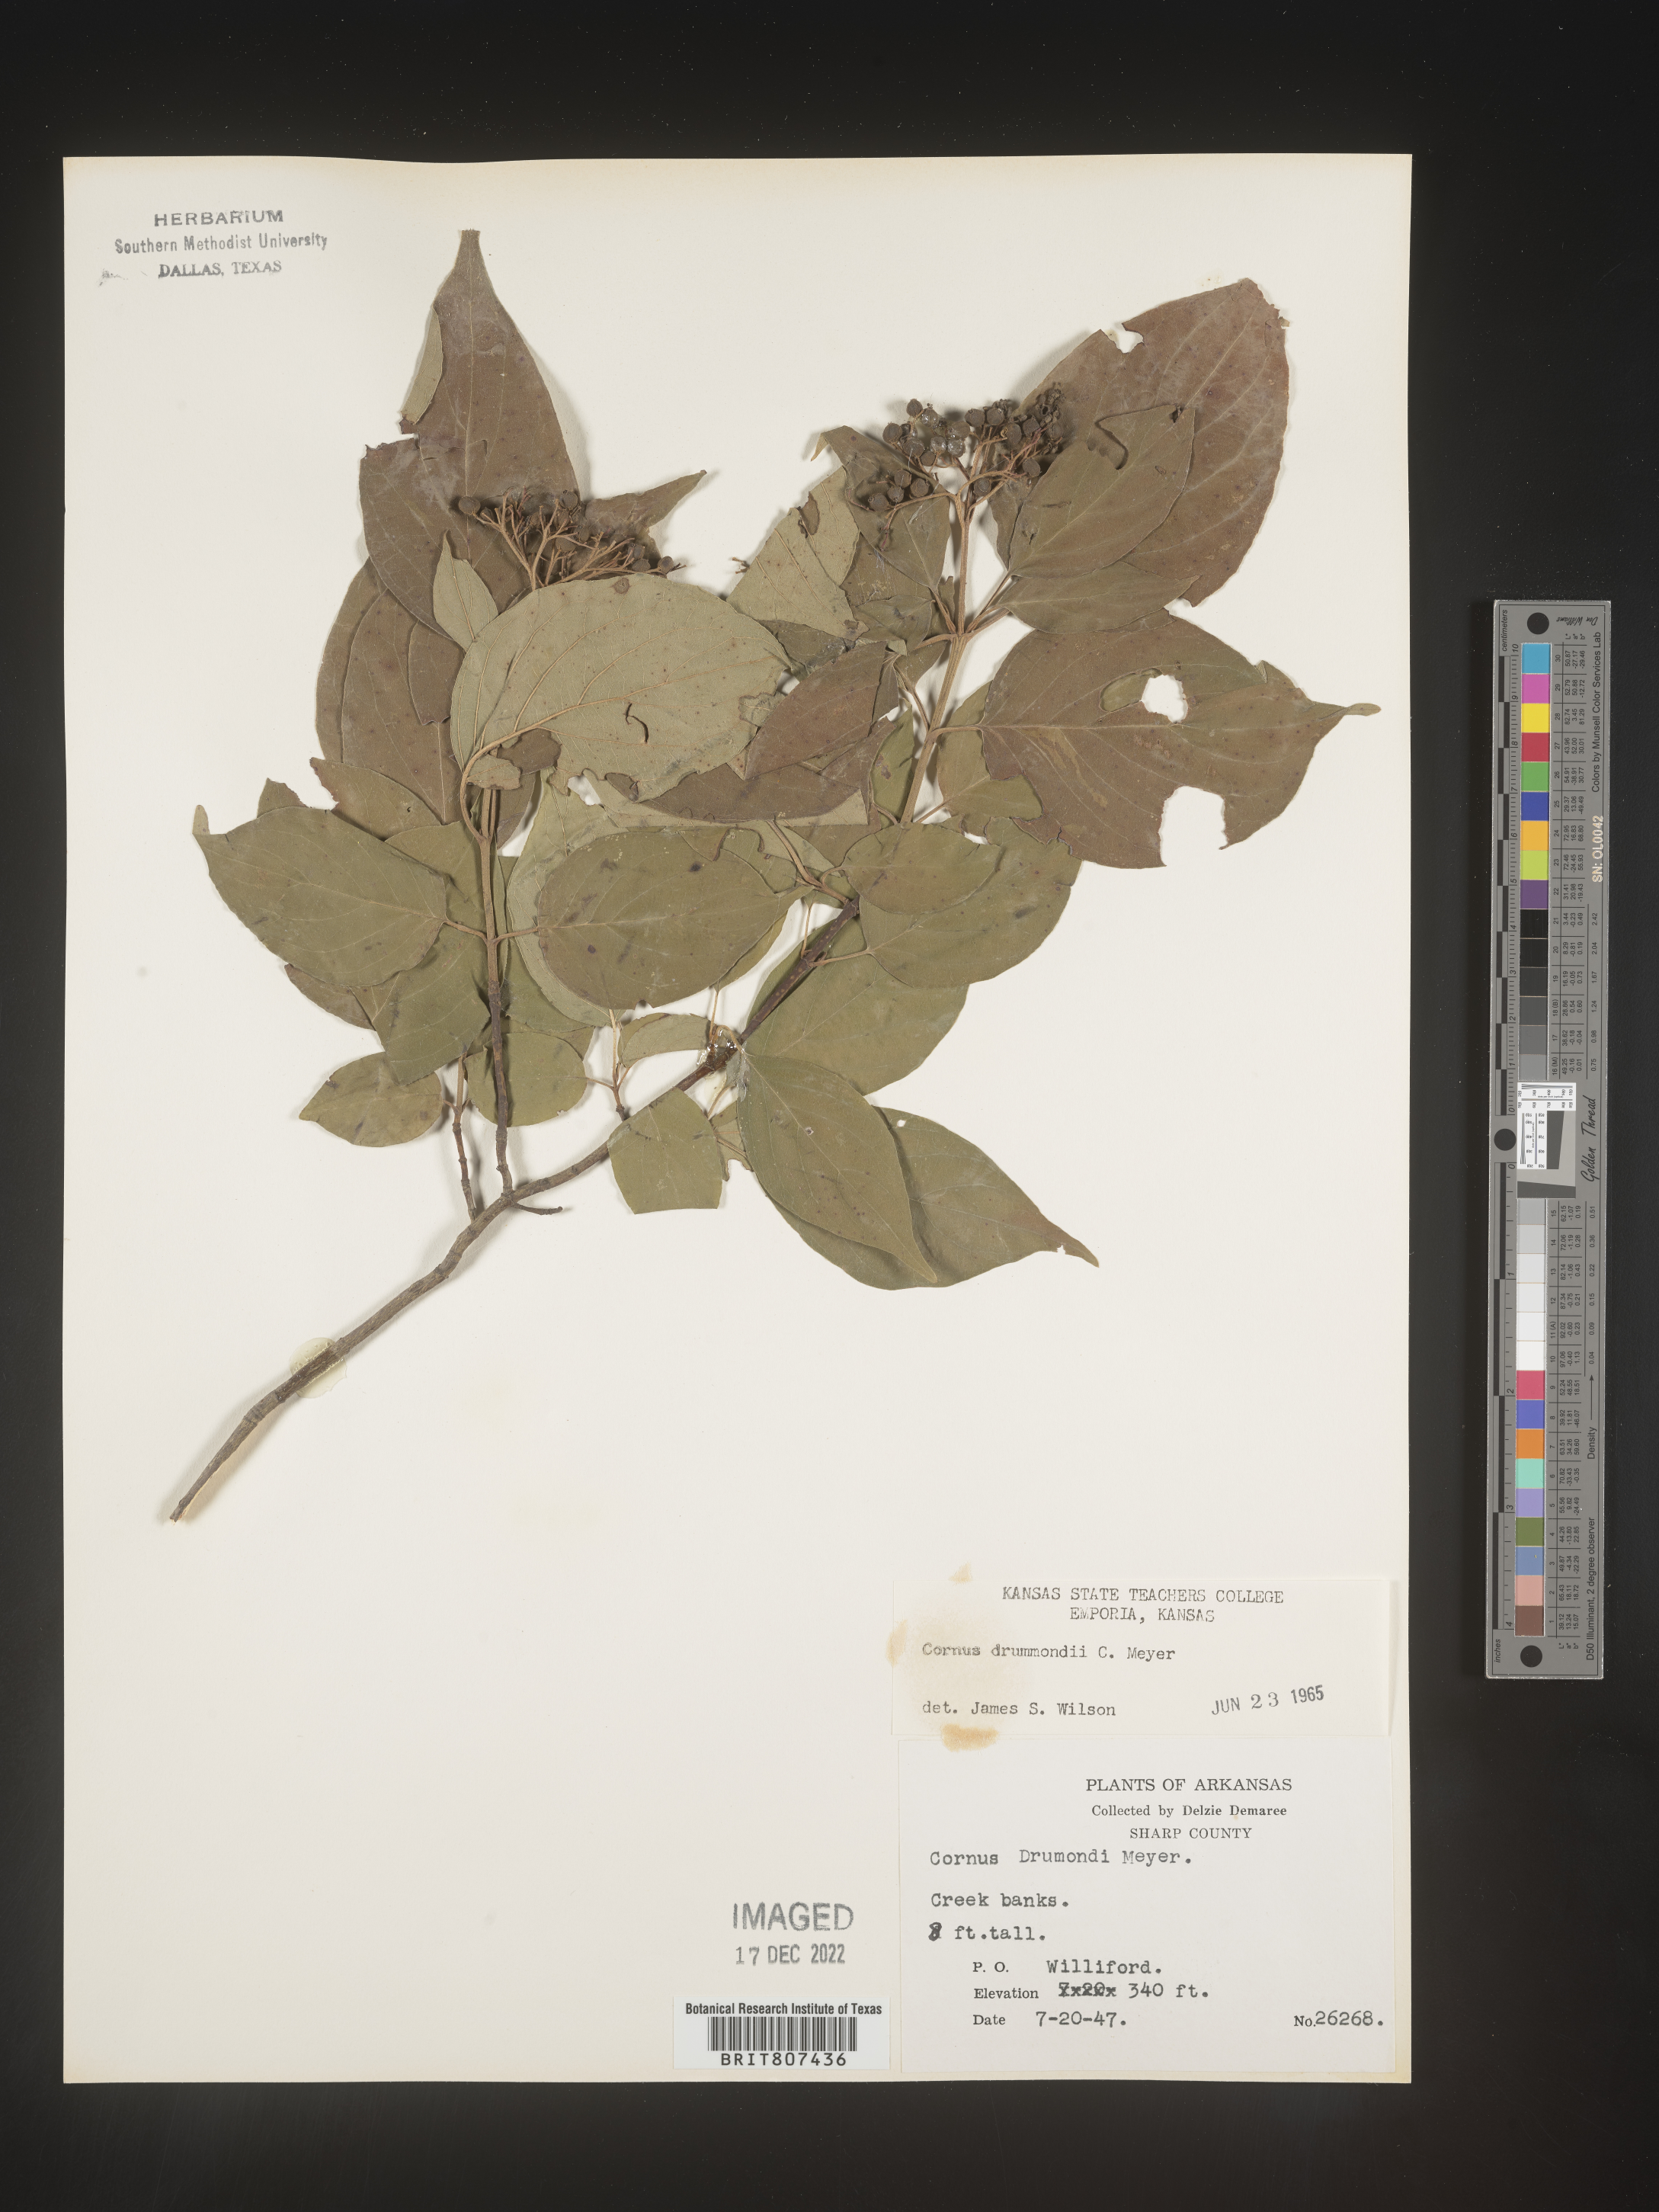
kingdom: Plantae
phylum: Tracheophyta
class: Magnoliopsida
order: Cornales
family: Cornaceae
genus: Cornus
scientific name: Cornus drummondii
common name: Rough-leaf dogwood
